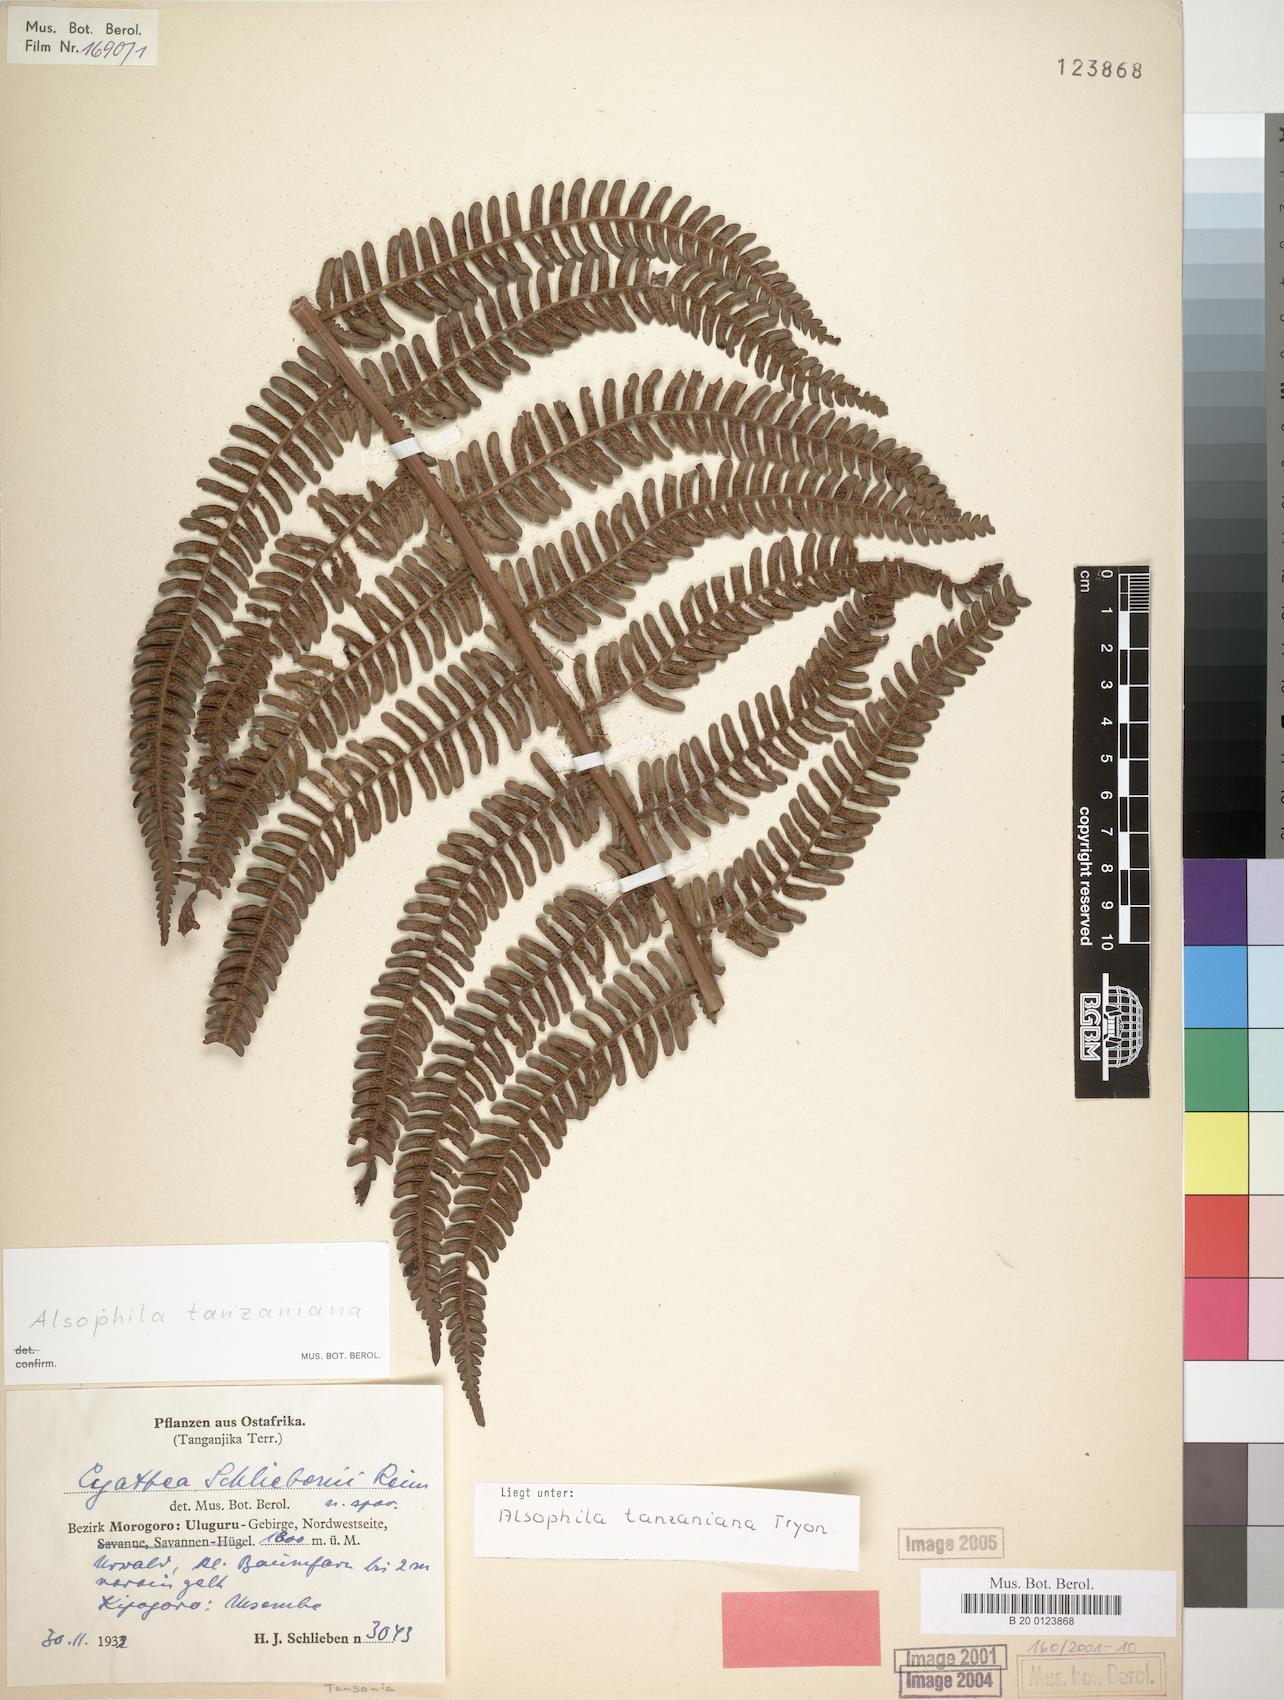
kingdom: Plantae
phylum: Tracheophyta
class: Polypodiopsida
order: Cyatheales
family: Cyatheaceae
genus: Alsophila
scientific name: Alsophila tanzaniana
